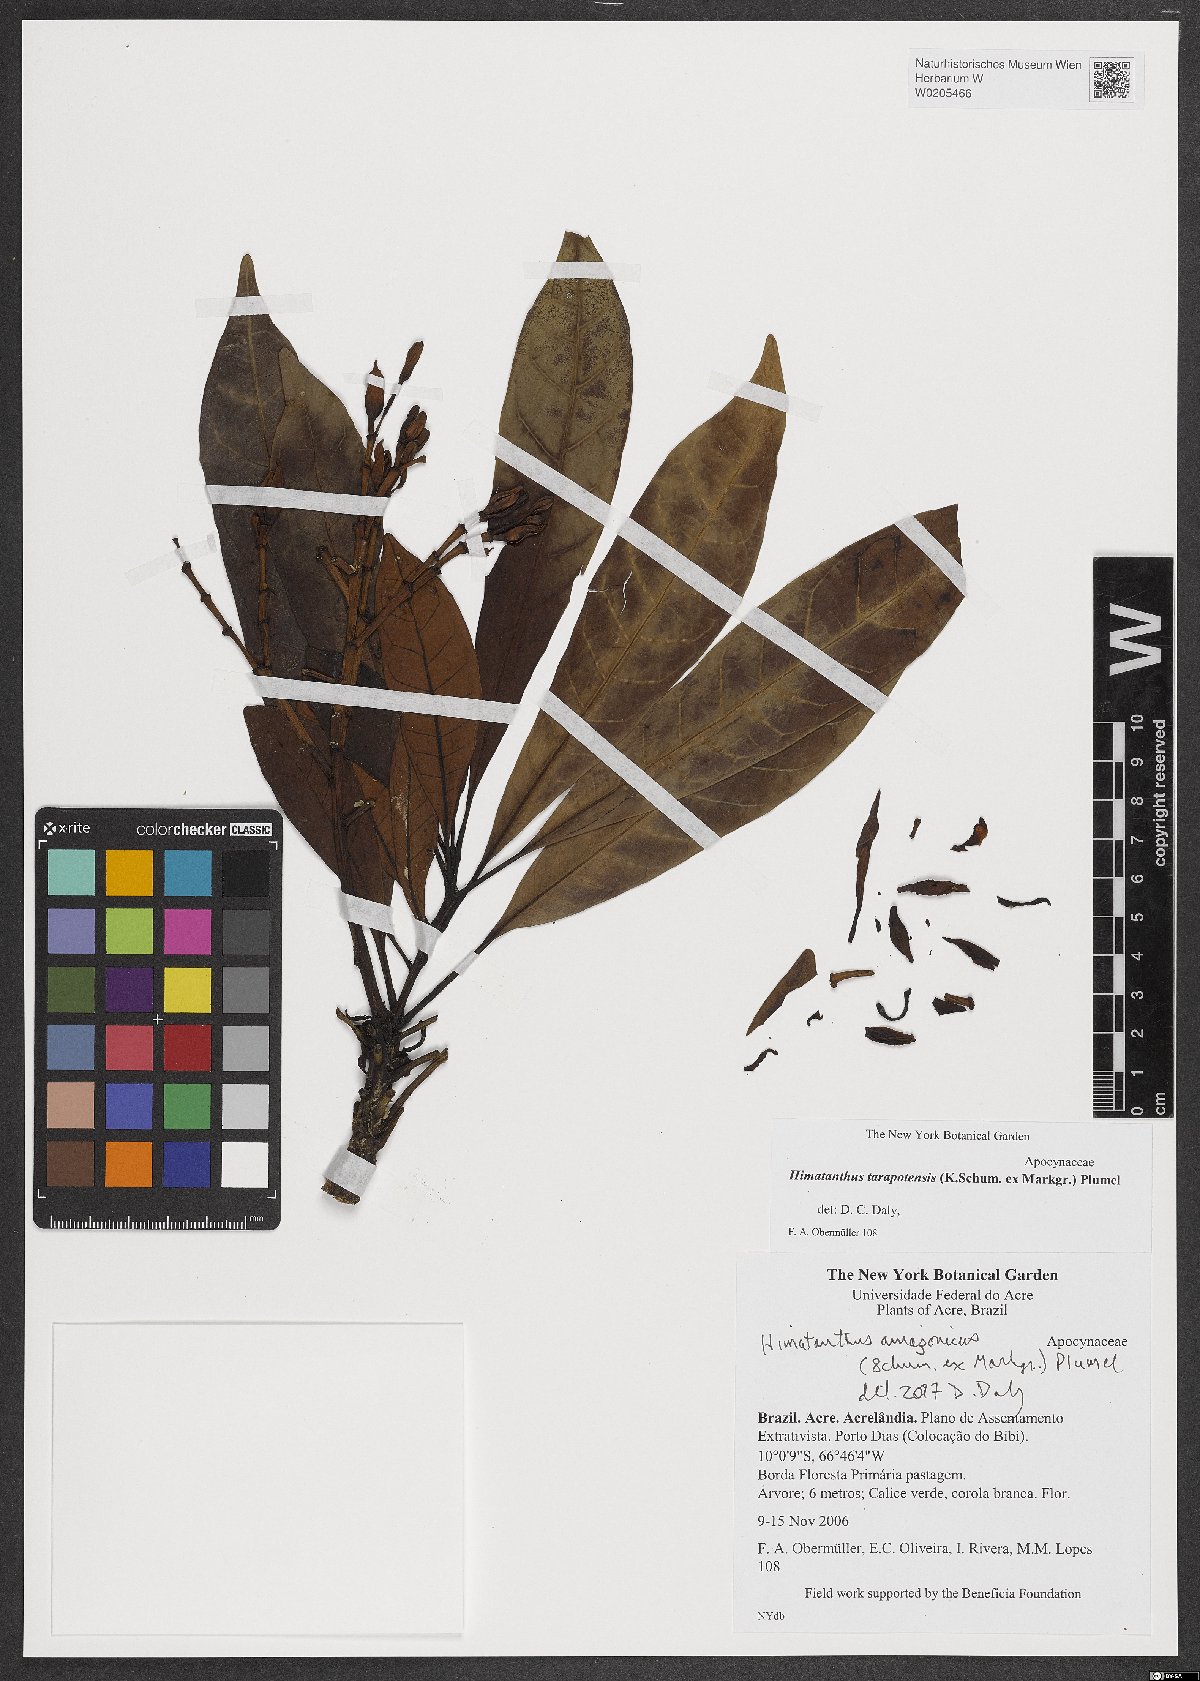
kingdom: Plantae
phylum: Tracheophyta
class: Magnoliopsida
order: Gentianales
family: Apocynaceae
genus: Himatanthus
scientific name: Himatanthus tarapotensis
